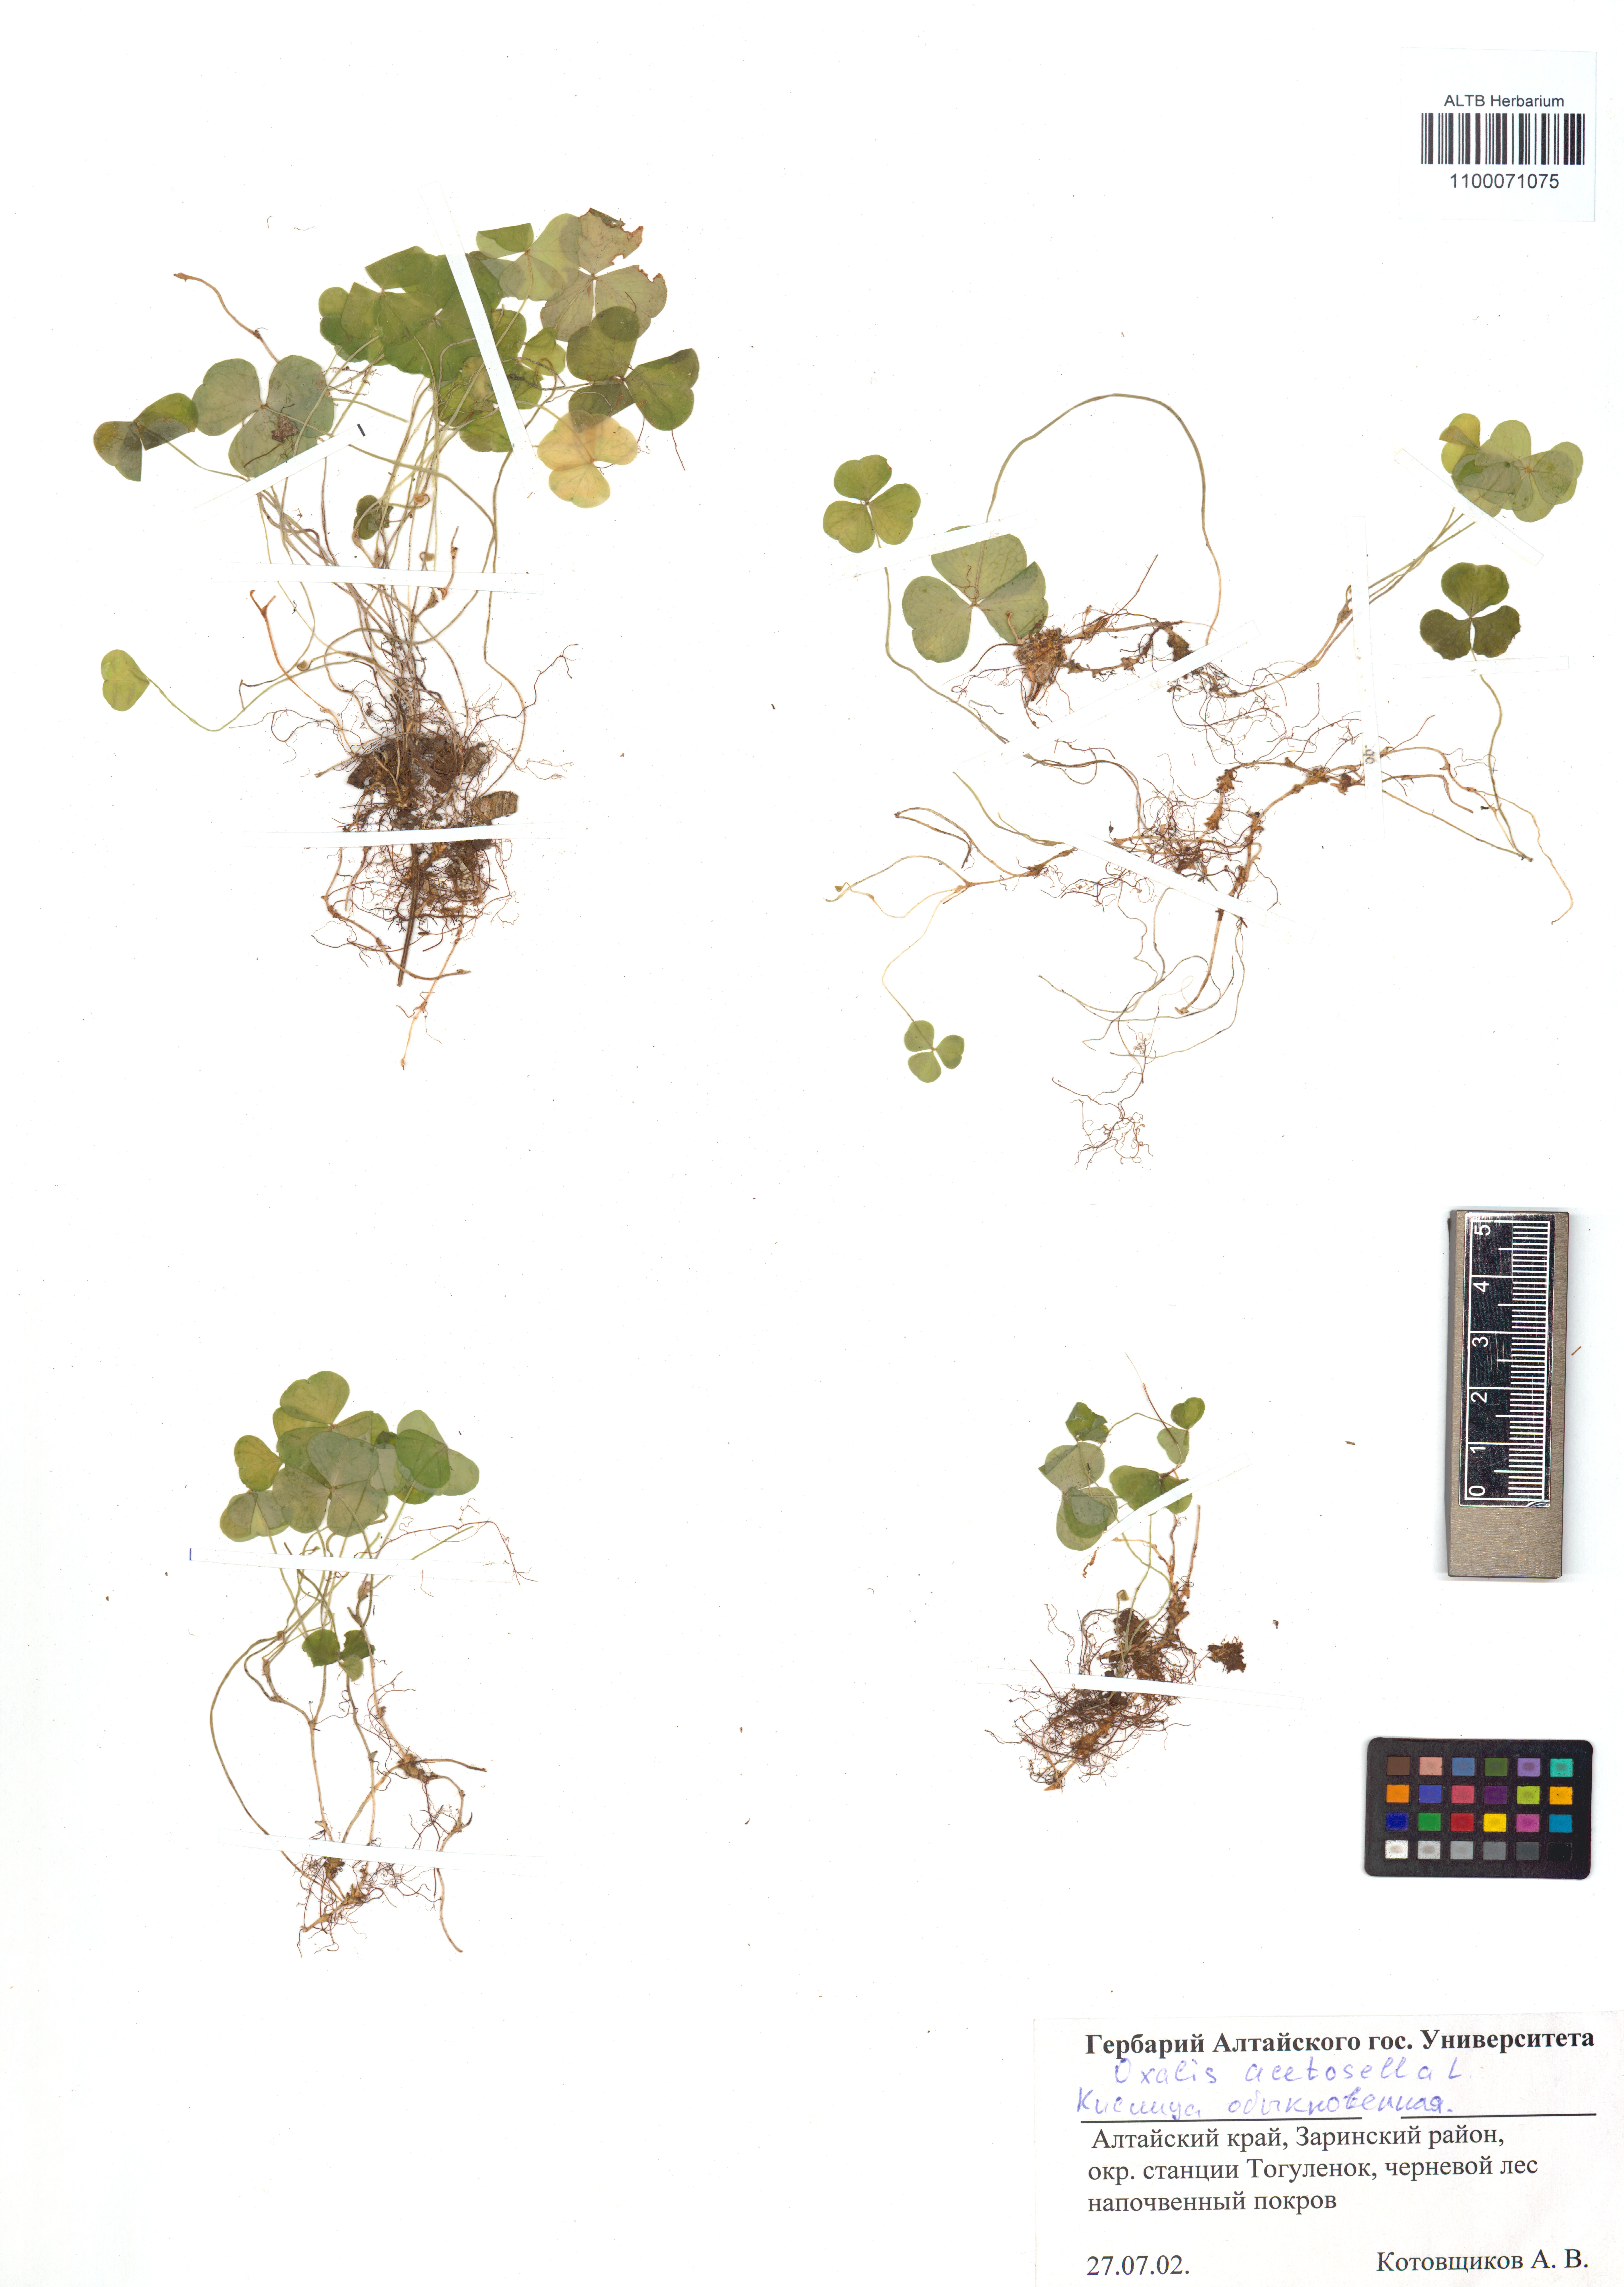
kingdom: Plantae
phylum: Tracheophyta
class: Magnoliopsida
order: Oxalidales
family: Oxalidaceae
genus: Oxalis
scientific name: Oxalis acetosella
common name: Wood-sorrel
